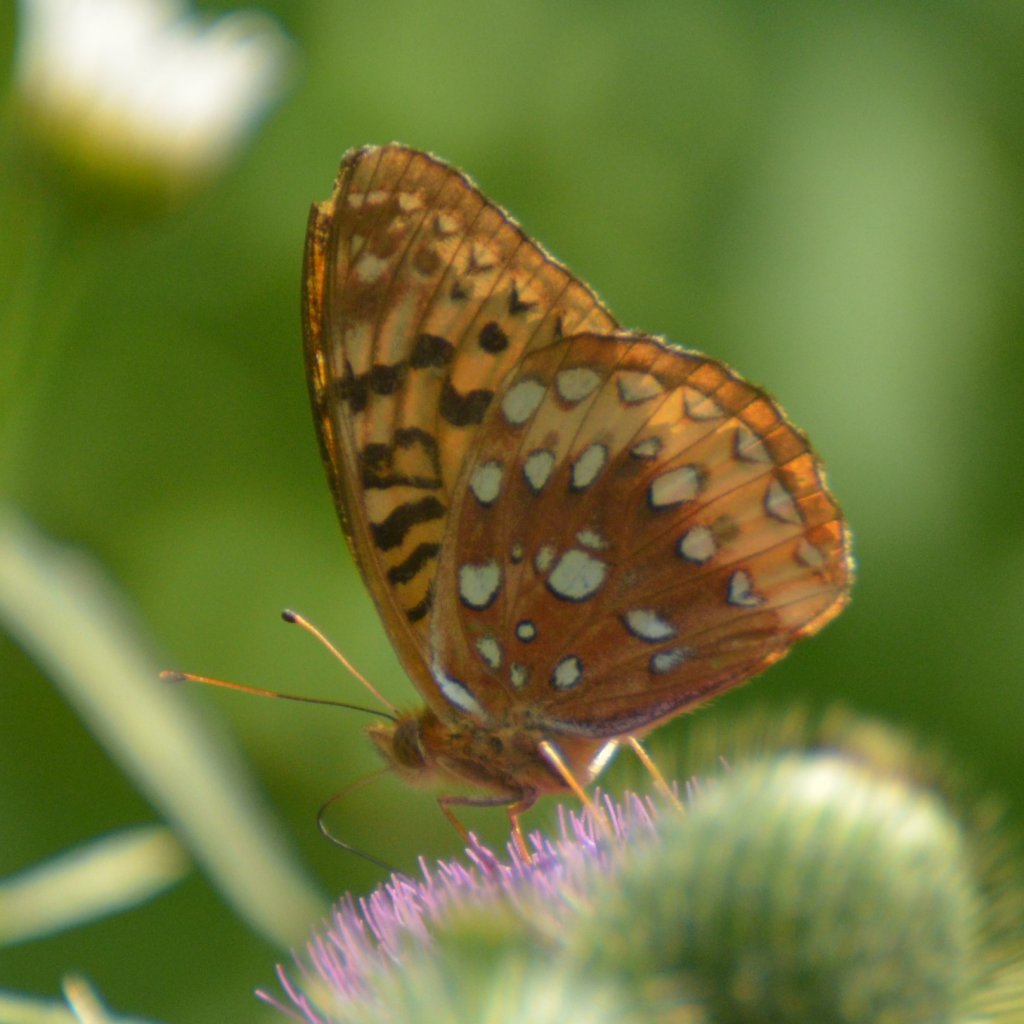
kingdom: Animalia
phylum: Arthropoda
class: Insecta
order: Lepidoptera
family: Nymphalidae
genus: Speyeria
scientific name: Speyeria cybele
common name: Great Spangled Fritillary
